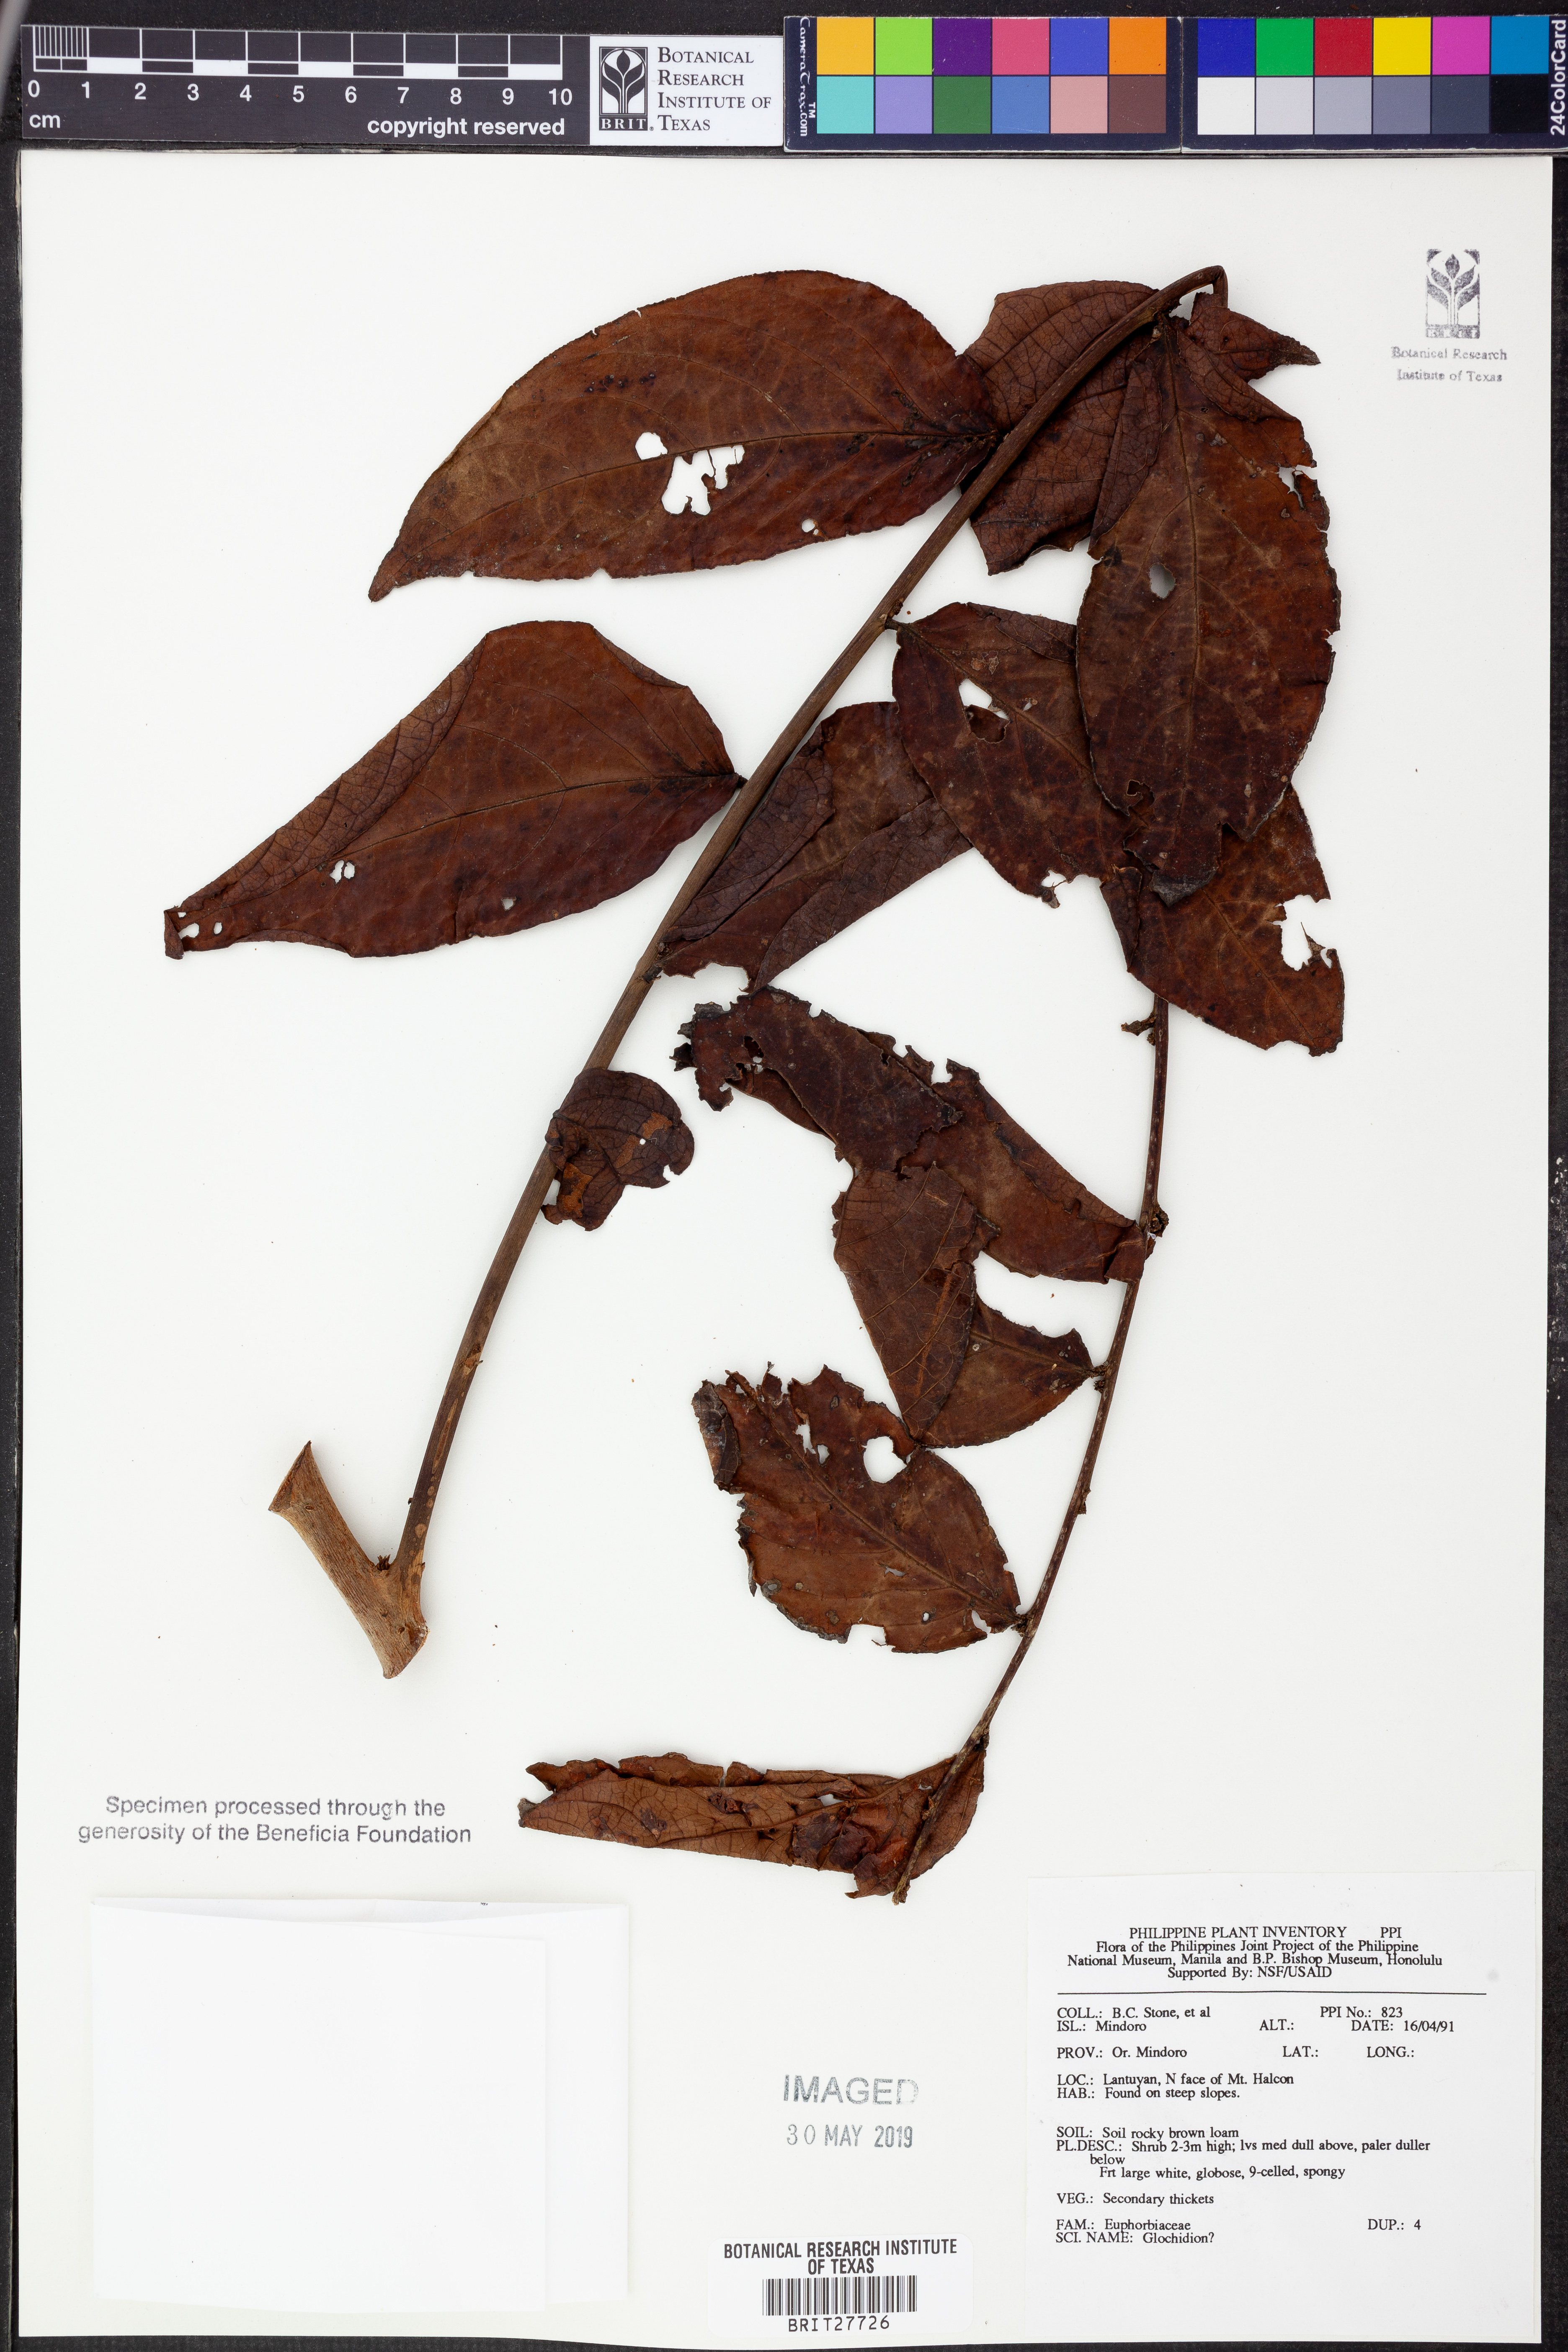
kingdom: Plantae
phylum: Tracheophyta
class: Magnoliopsida
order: Malpighiales
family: Phyllanthaceae
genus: Glochidion
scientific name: Glochidion
